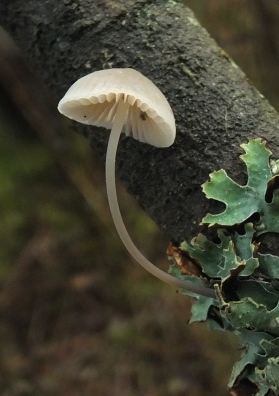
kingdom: Fungi
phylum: Basidiomycota
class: Agaricomycetes
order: Agaricales
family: Mycenaceae
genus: Mycena
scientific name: Mycena arcangeliana
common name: oliven-huesvamp
